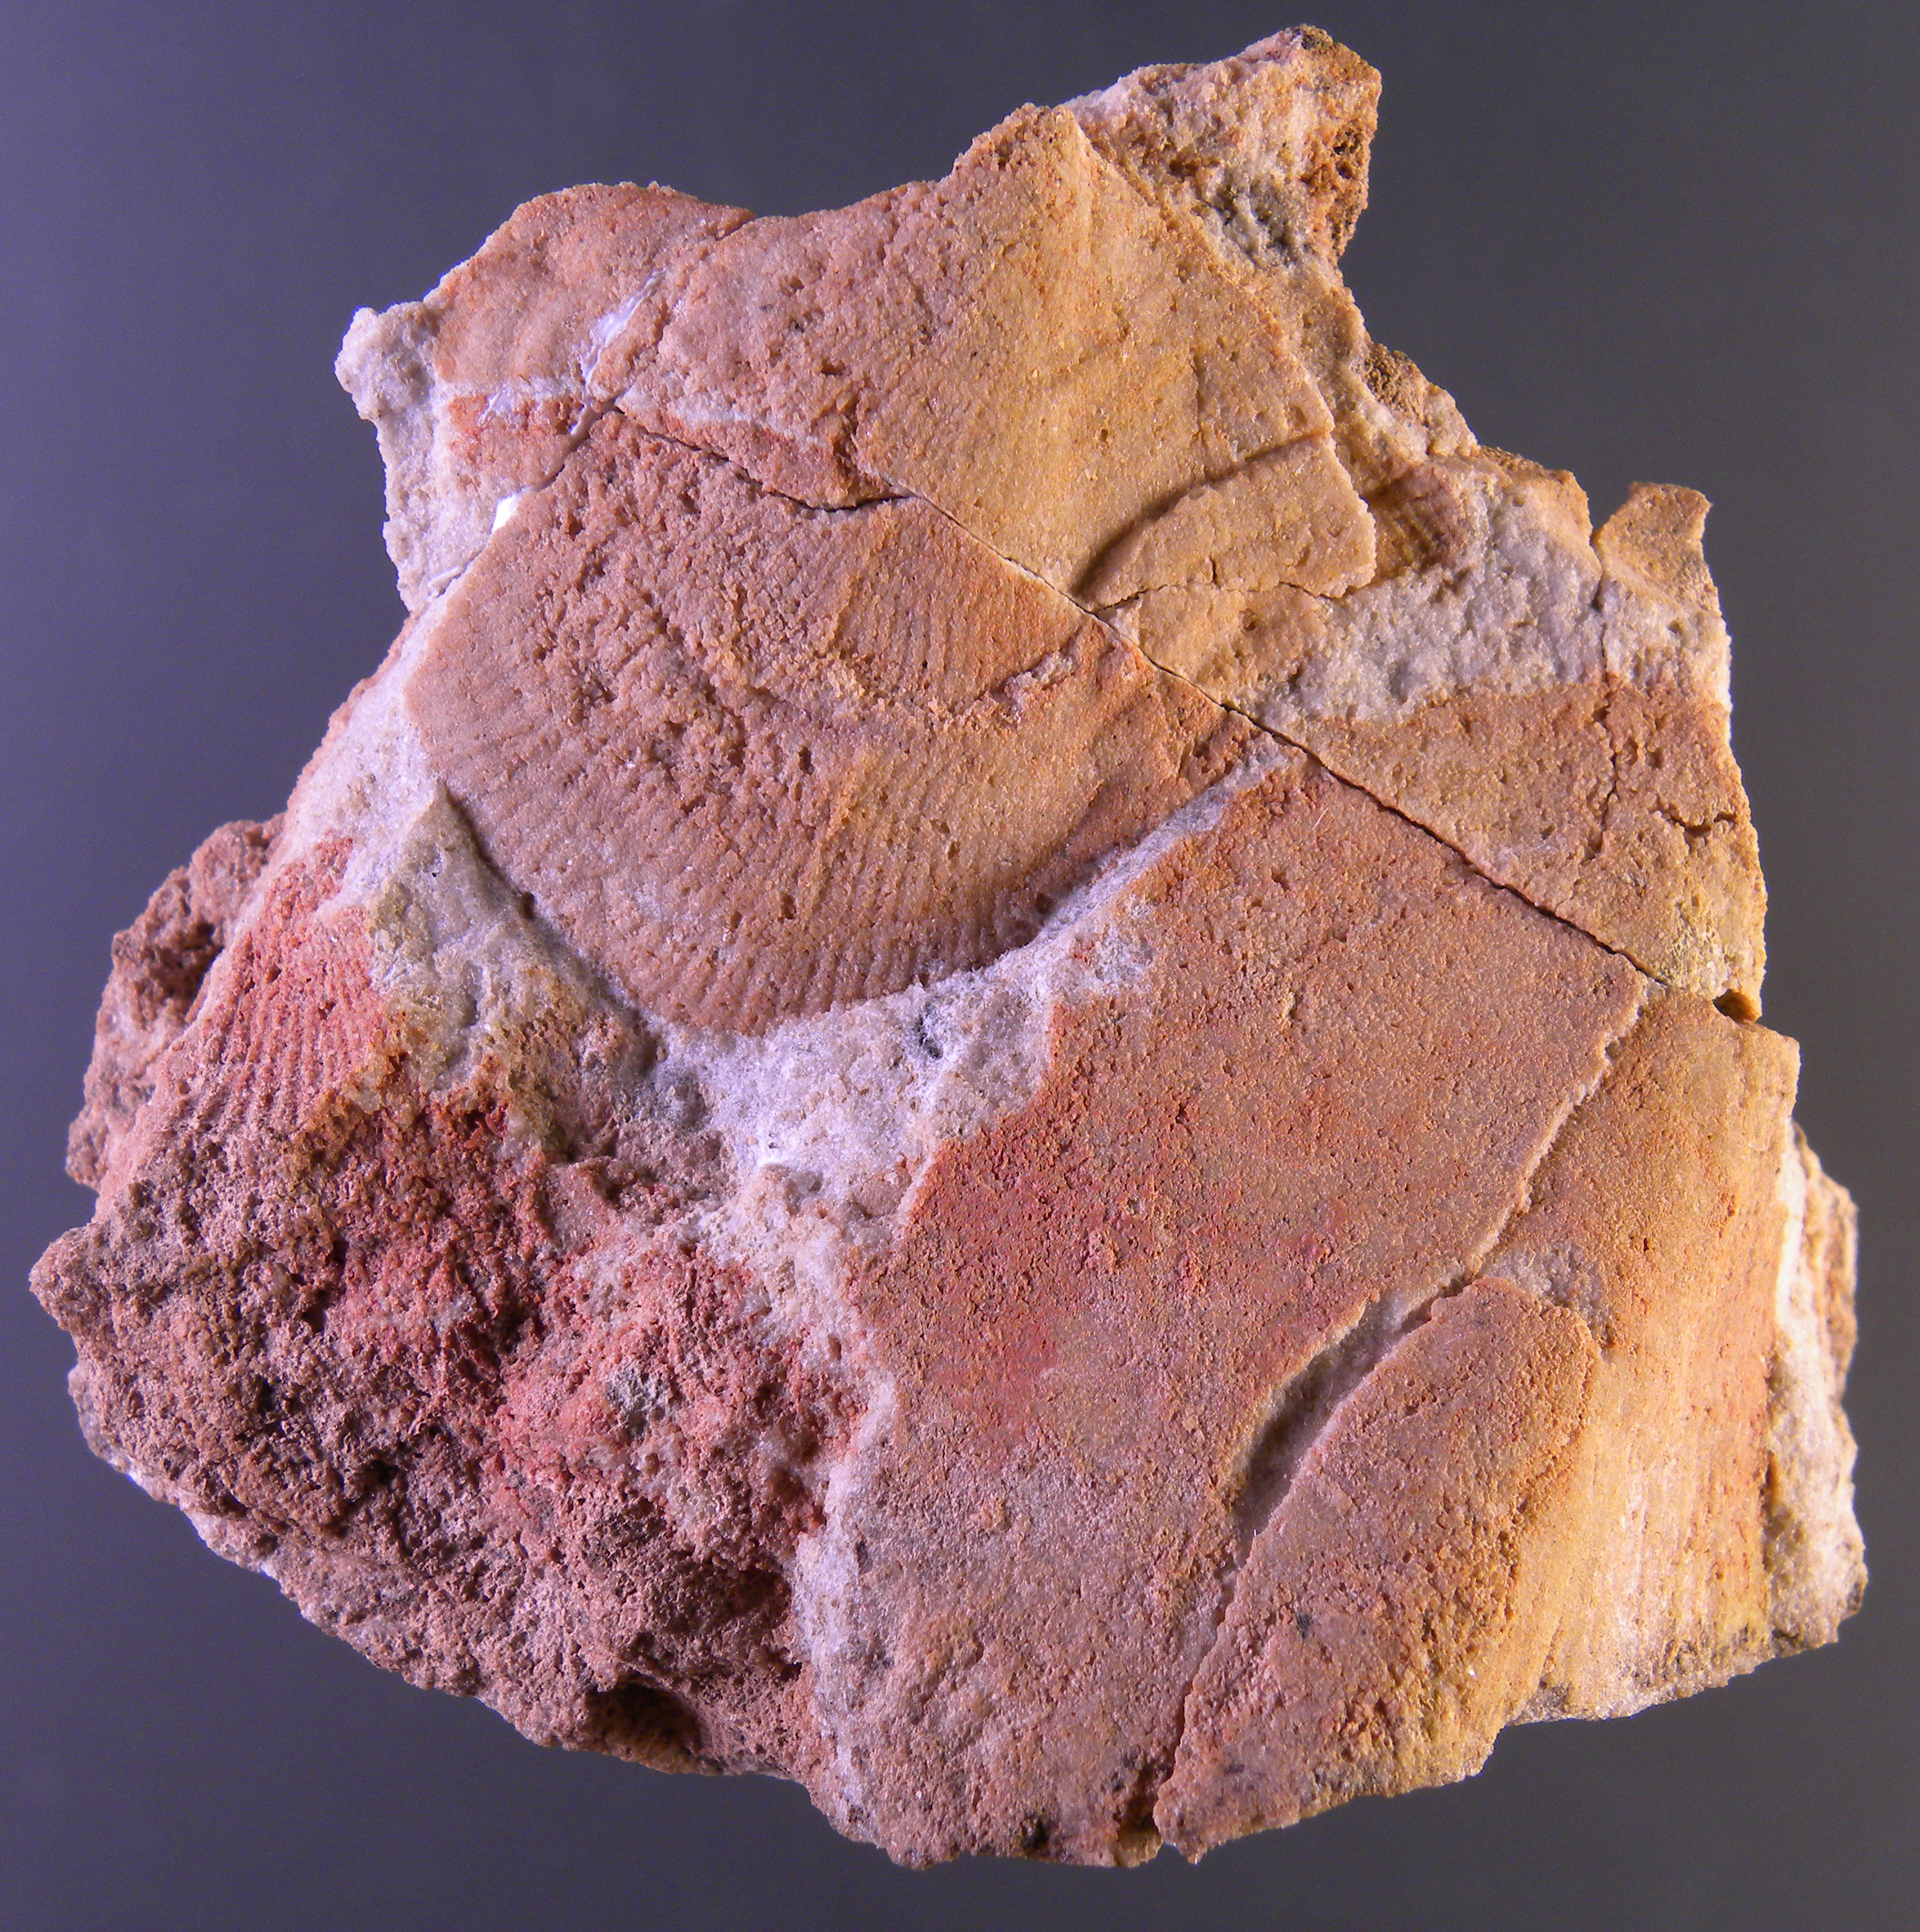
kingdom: Animalia
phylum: Mollusca
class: Bivalvia
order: Ostreida
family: Pterineidae
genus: Limoptera
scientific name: Limoptera
